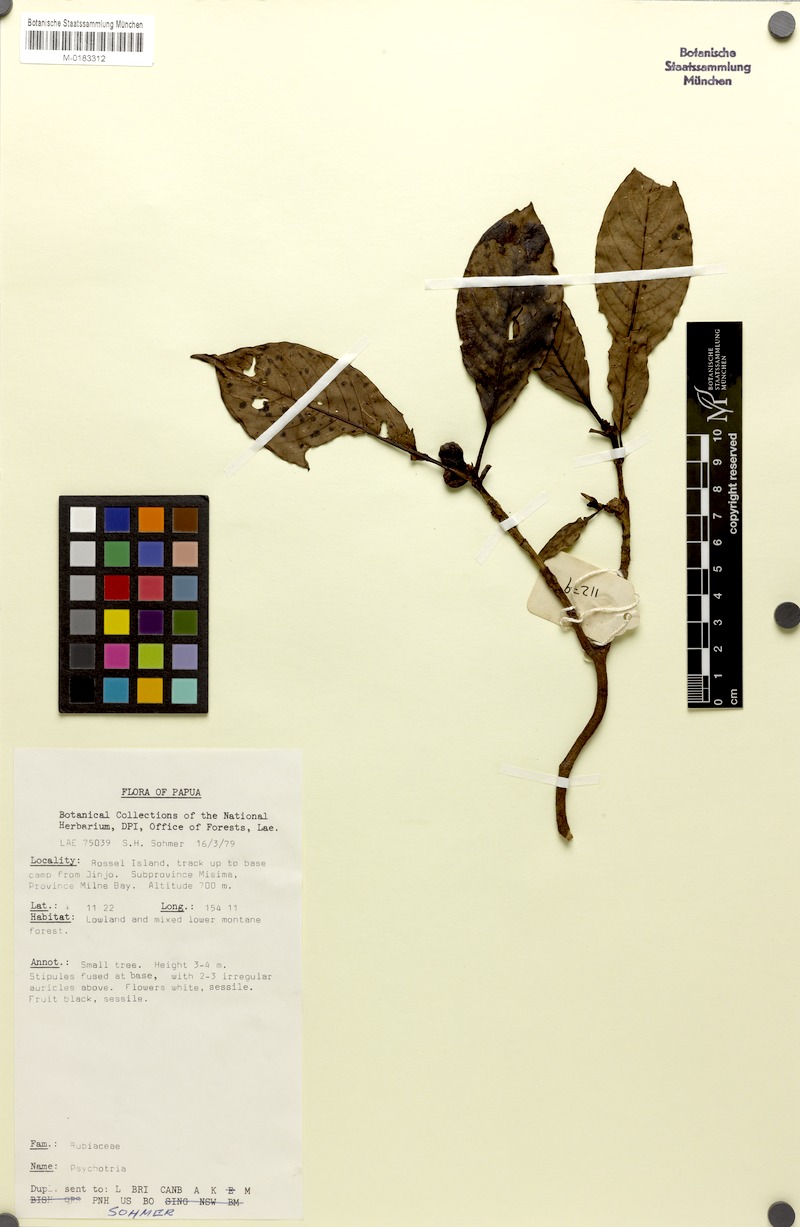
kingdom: Plantae
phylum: Tracheophyta
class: Magnoliopsida
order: Gentianales
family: Rubiaceae
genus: Psychotria
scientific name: Psychotria rosseliensis
